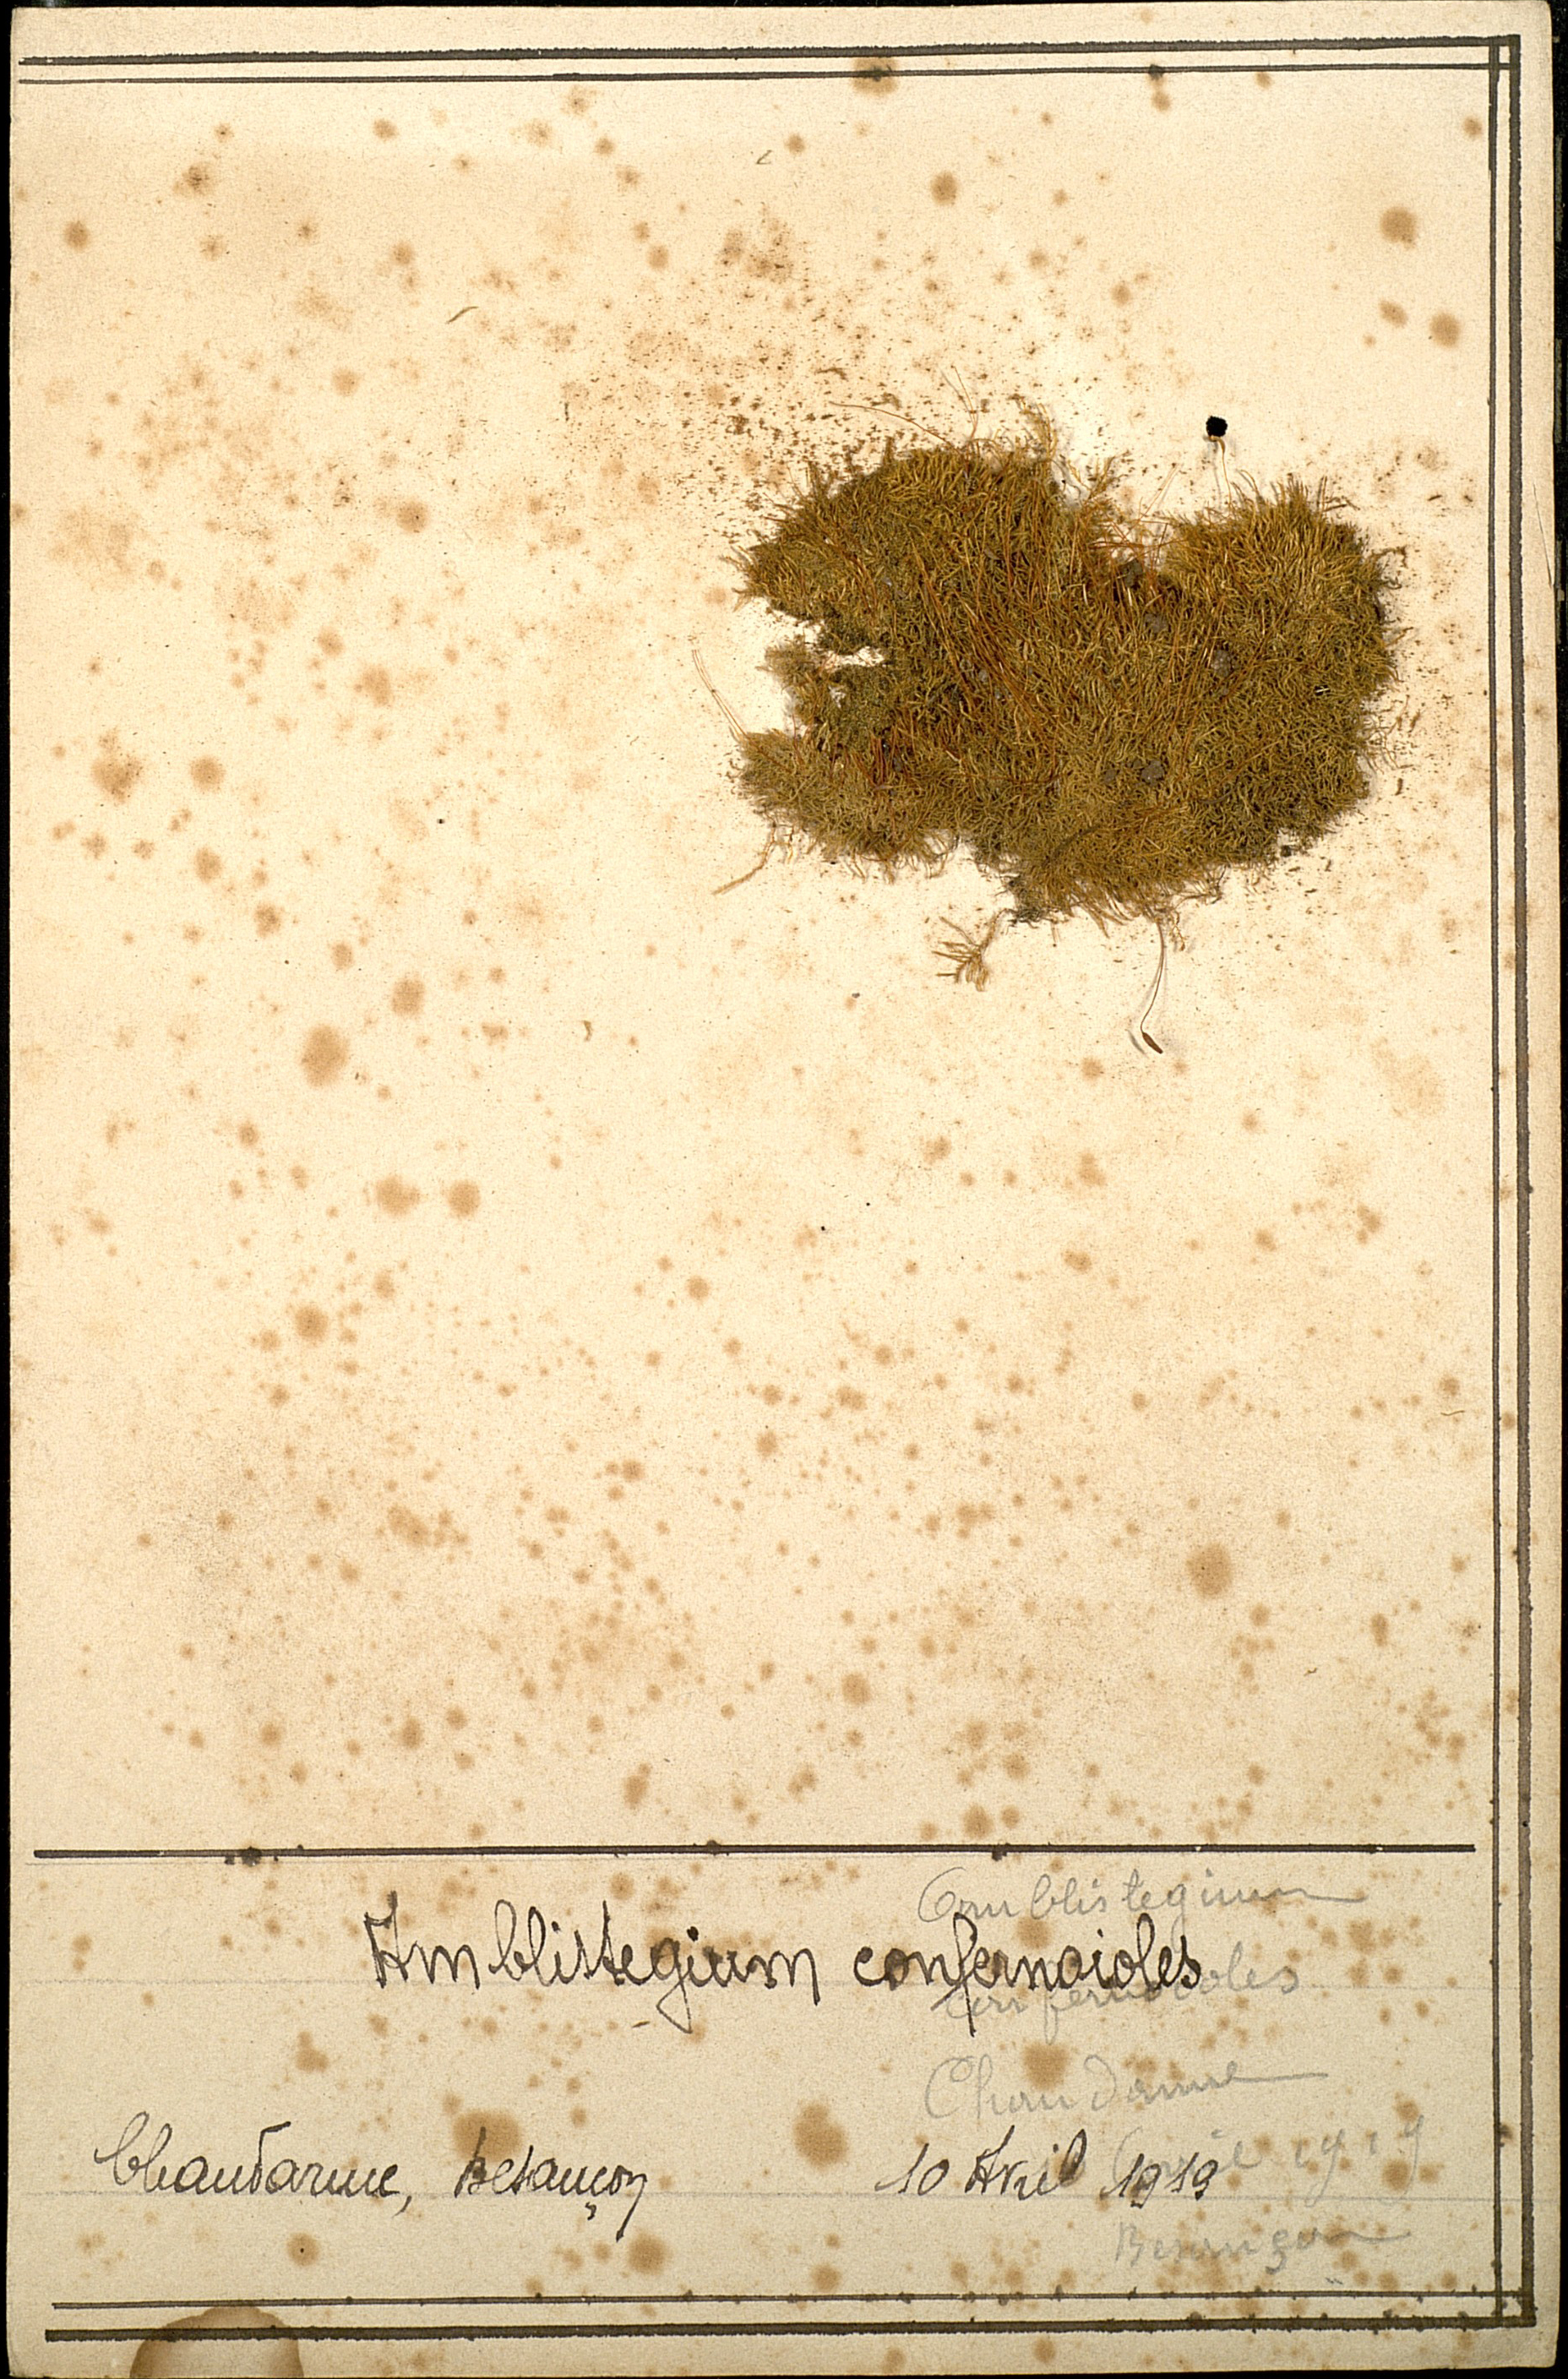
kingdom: Plantae
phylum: Bryophyta
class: Bryopsida
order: Hypnales
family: Amblystegiaceae
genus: Serpoleskea
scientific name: Serpoleskea confervoides
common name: Alga-like matted-moss
